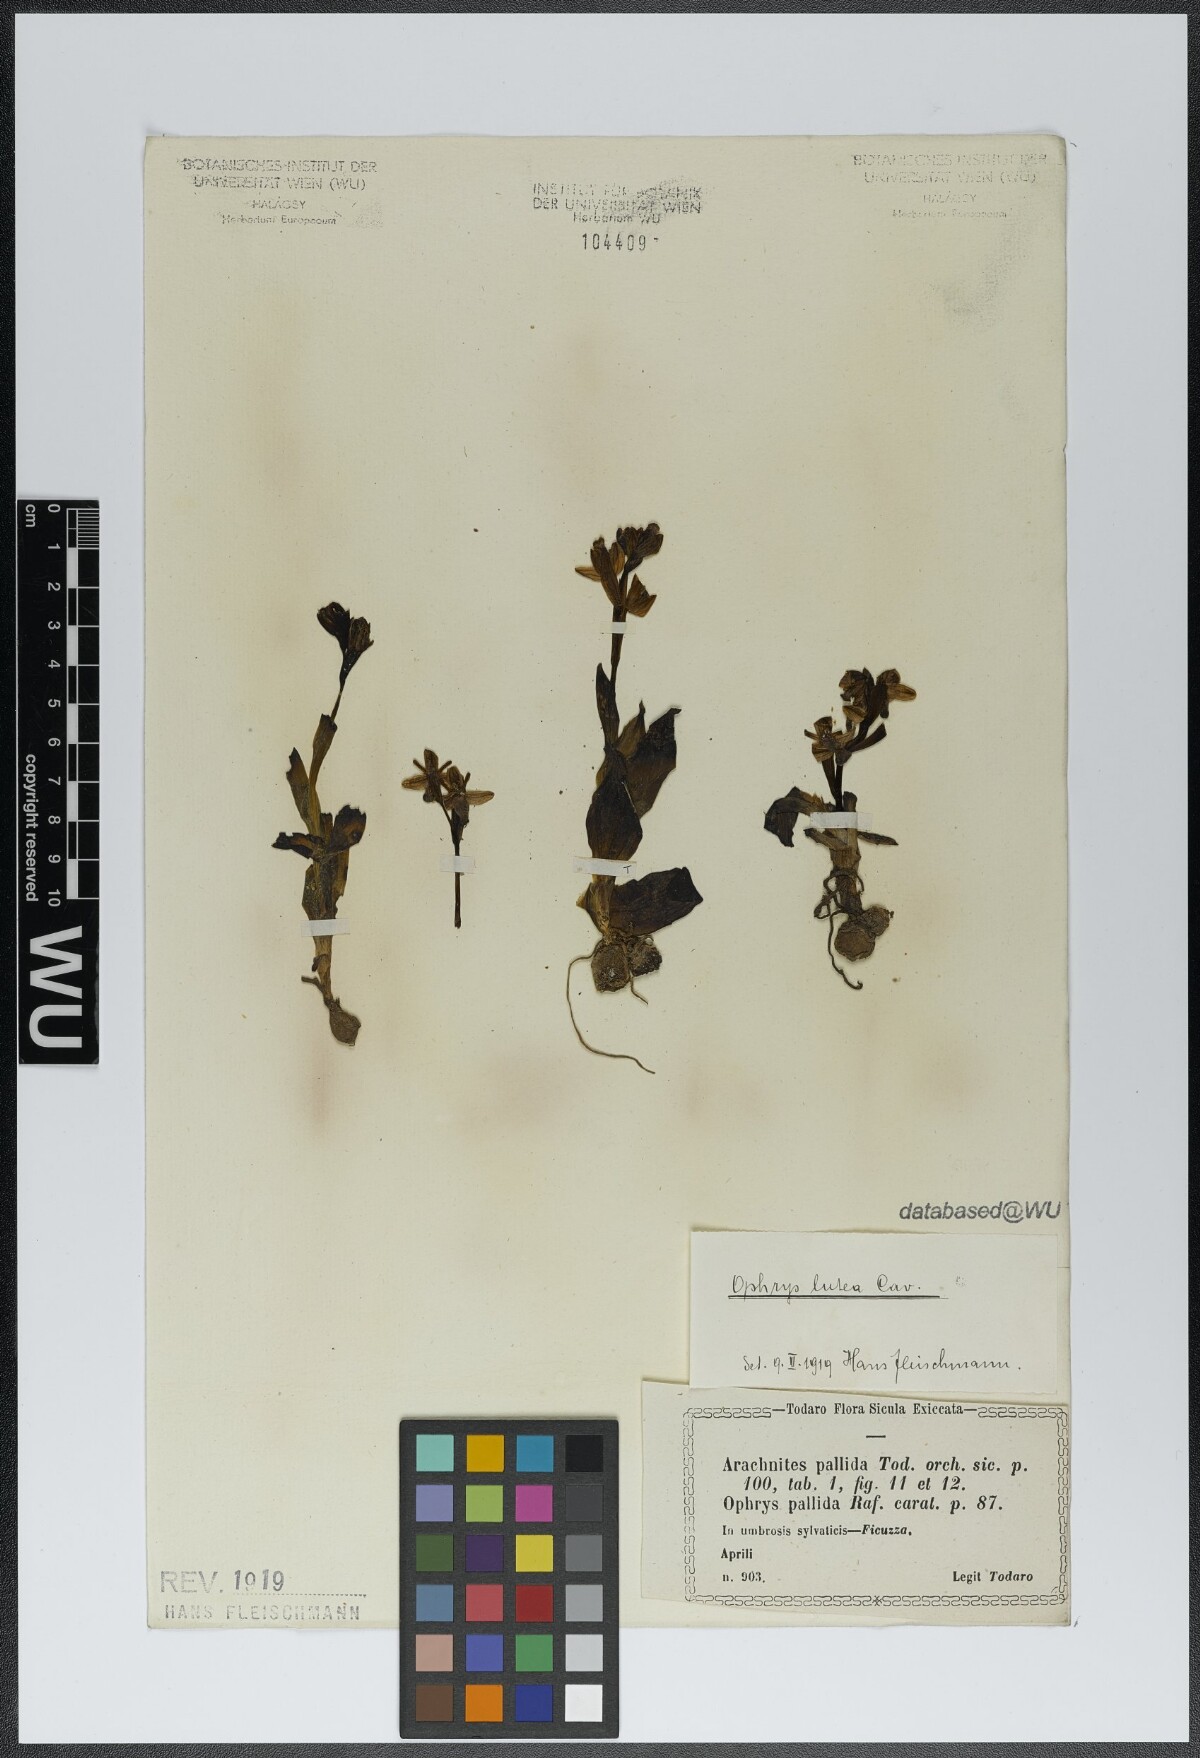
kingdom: Plantae
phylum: Tracheophyta
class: Liliopsida
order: Asparagales
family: Orchidaceae
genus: Ophrys
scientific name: Ophrys lutea
